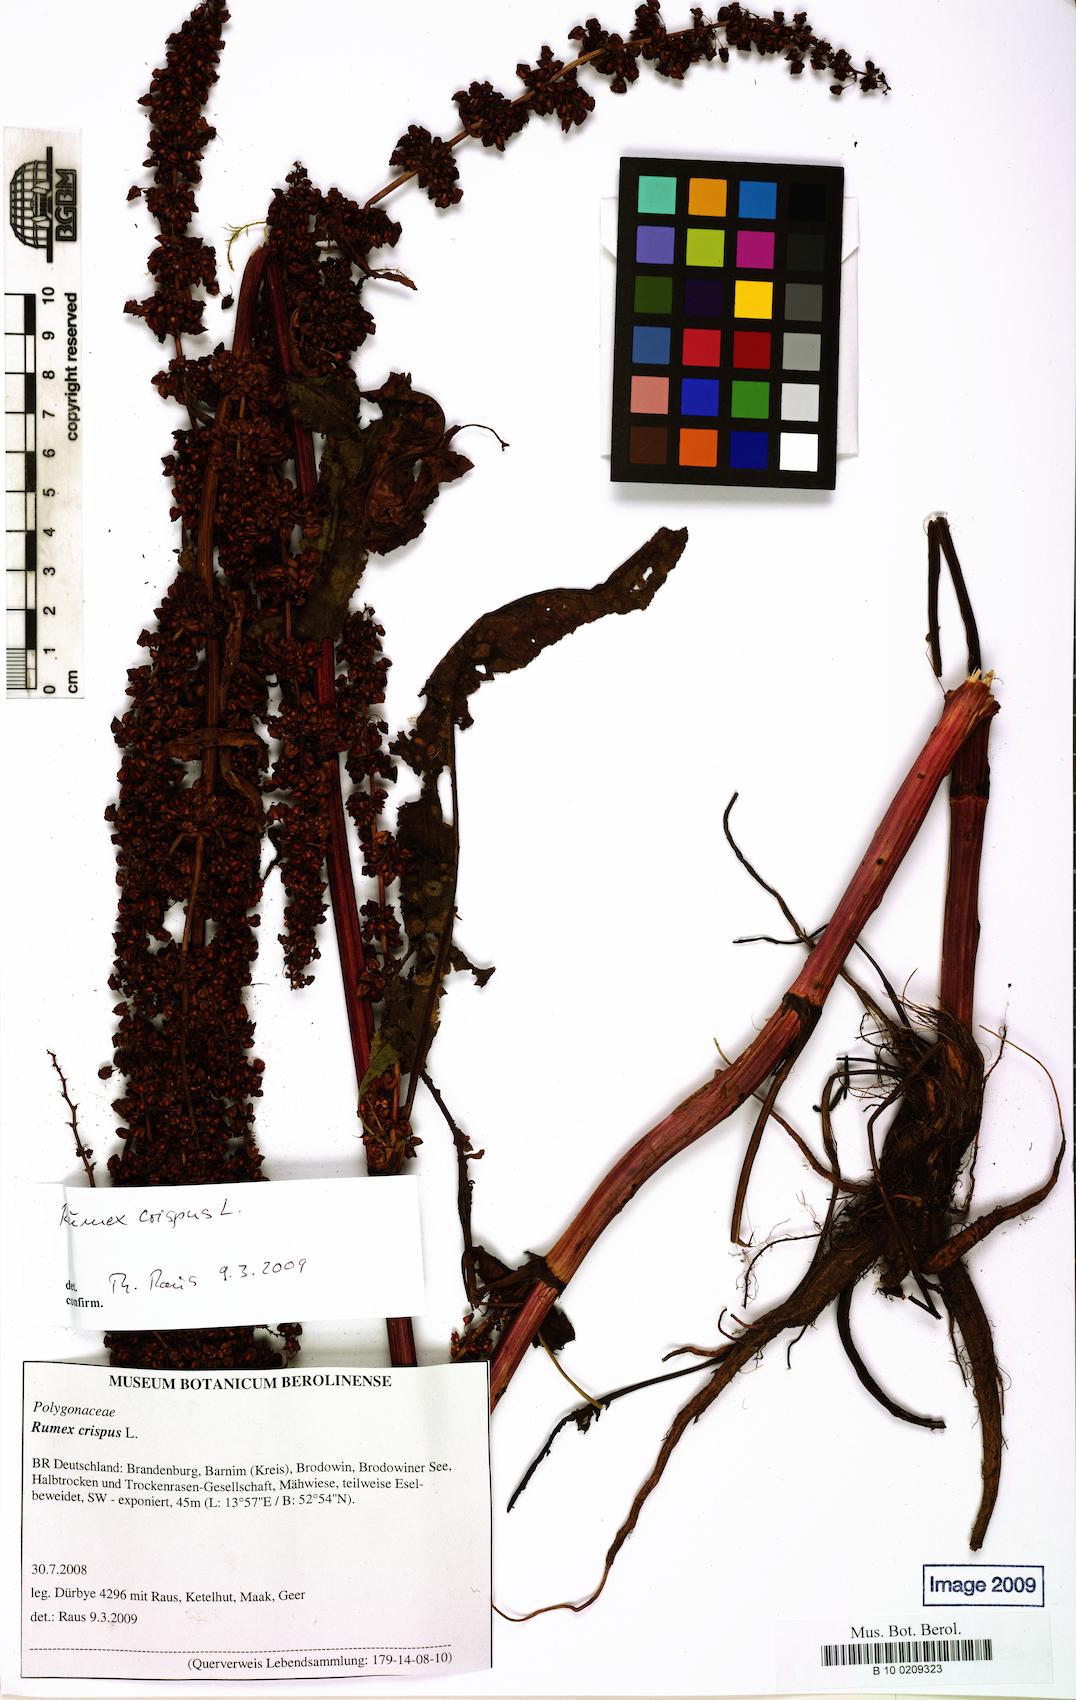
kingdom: Plantae
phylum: Tracheophyta
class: Magnoliopsida
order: Caryophyllales
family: Polygonaceae
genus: Rumex
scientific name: Rumex crispus
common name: Curled dock
